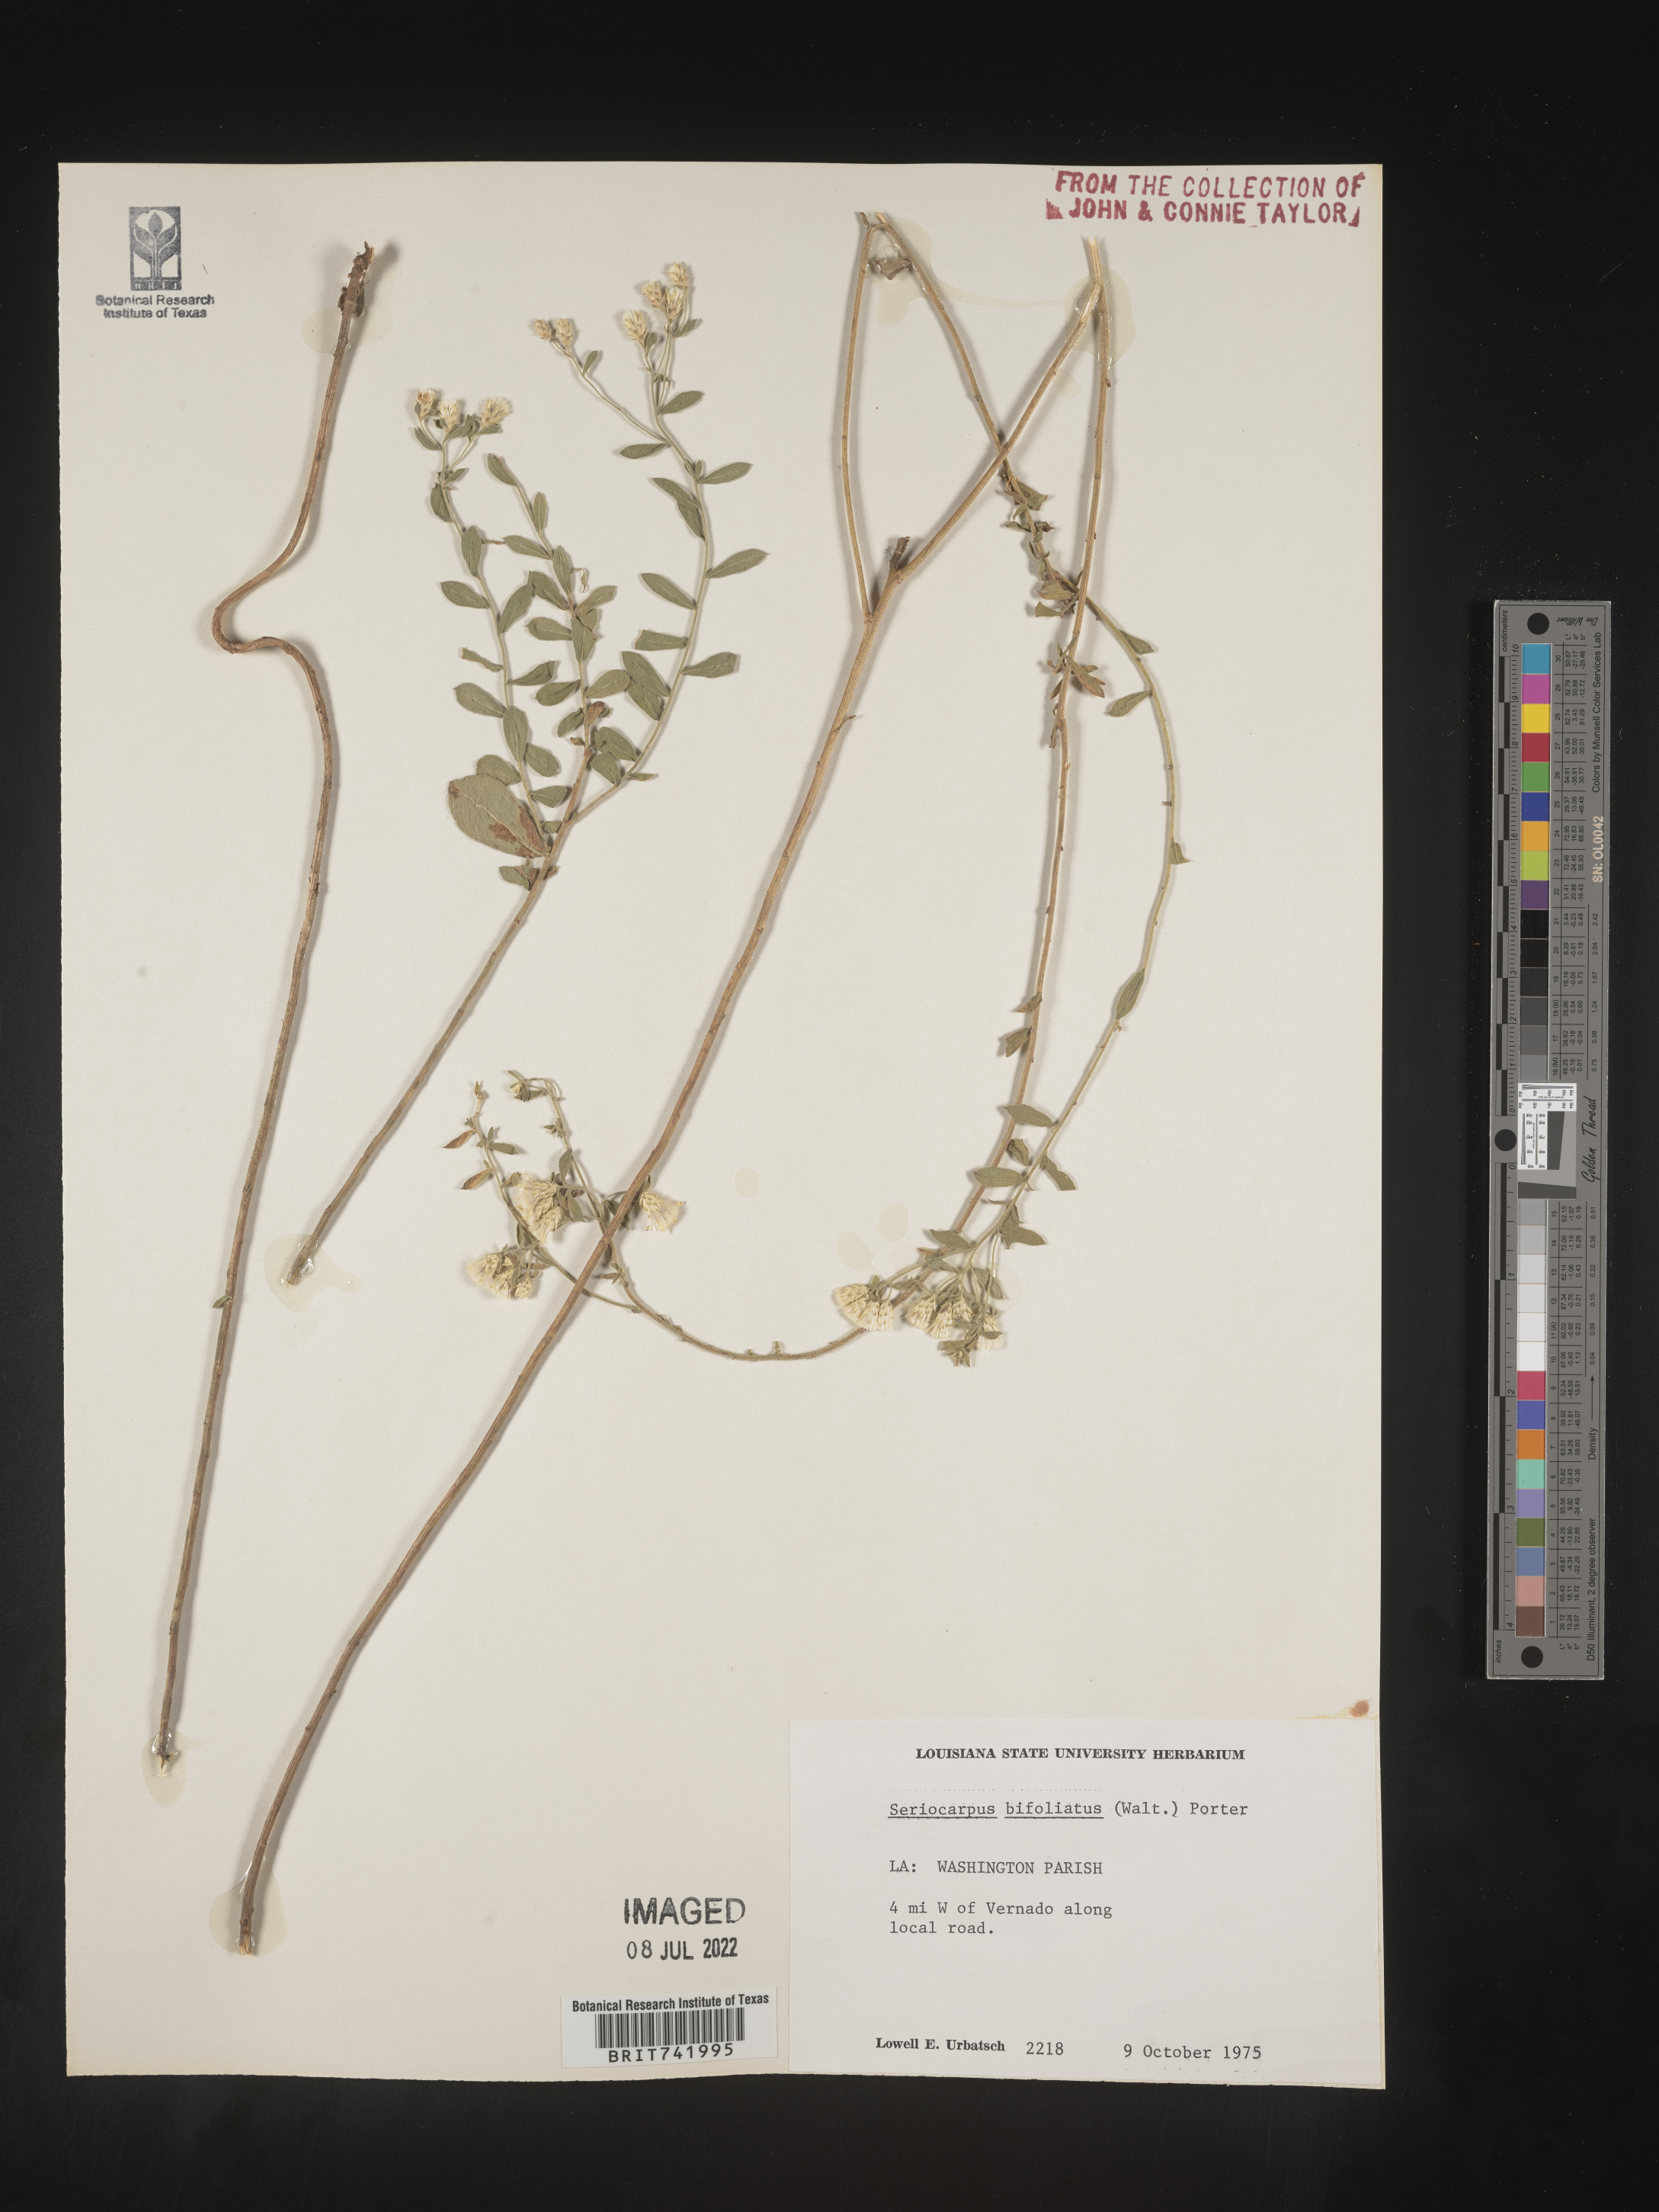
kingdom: Plantae
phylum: Tracheophyta
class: Magnoliopsida
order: Asterales
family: Asteraceae
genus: Sericocarpus
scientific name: Sericocarpus tortifolius
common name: Dixie aster
